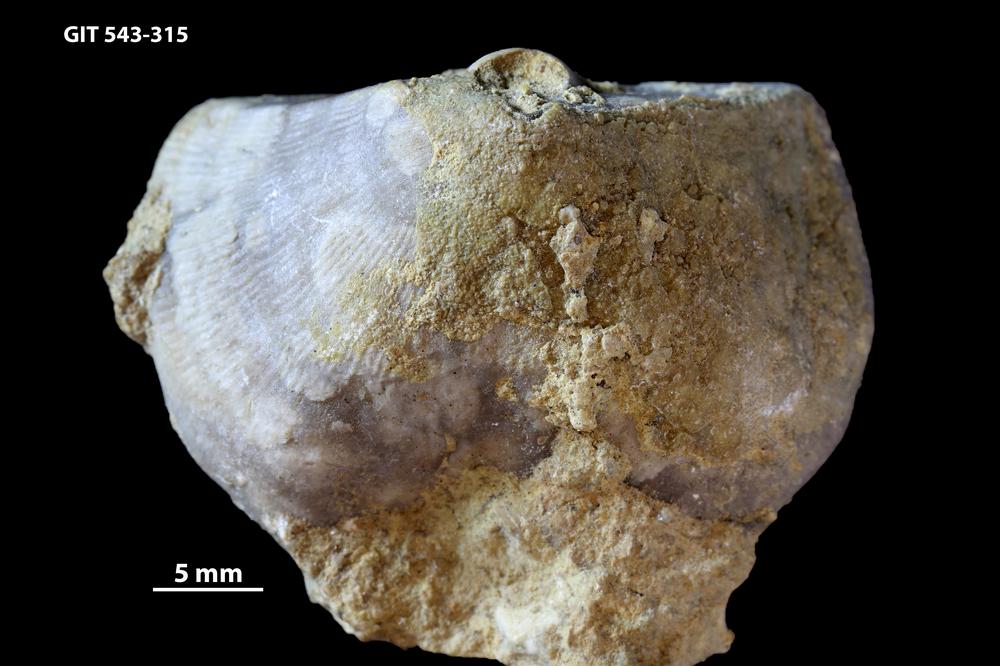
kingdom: Animalia
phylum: Brachiopoda
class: Rhynchonellata
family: Clitambonitidae
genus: Ilmarinia
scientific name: Ilmarinia
